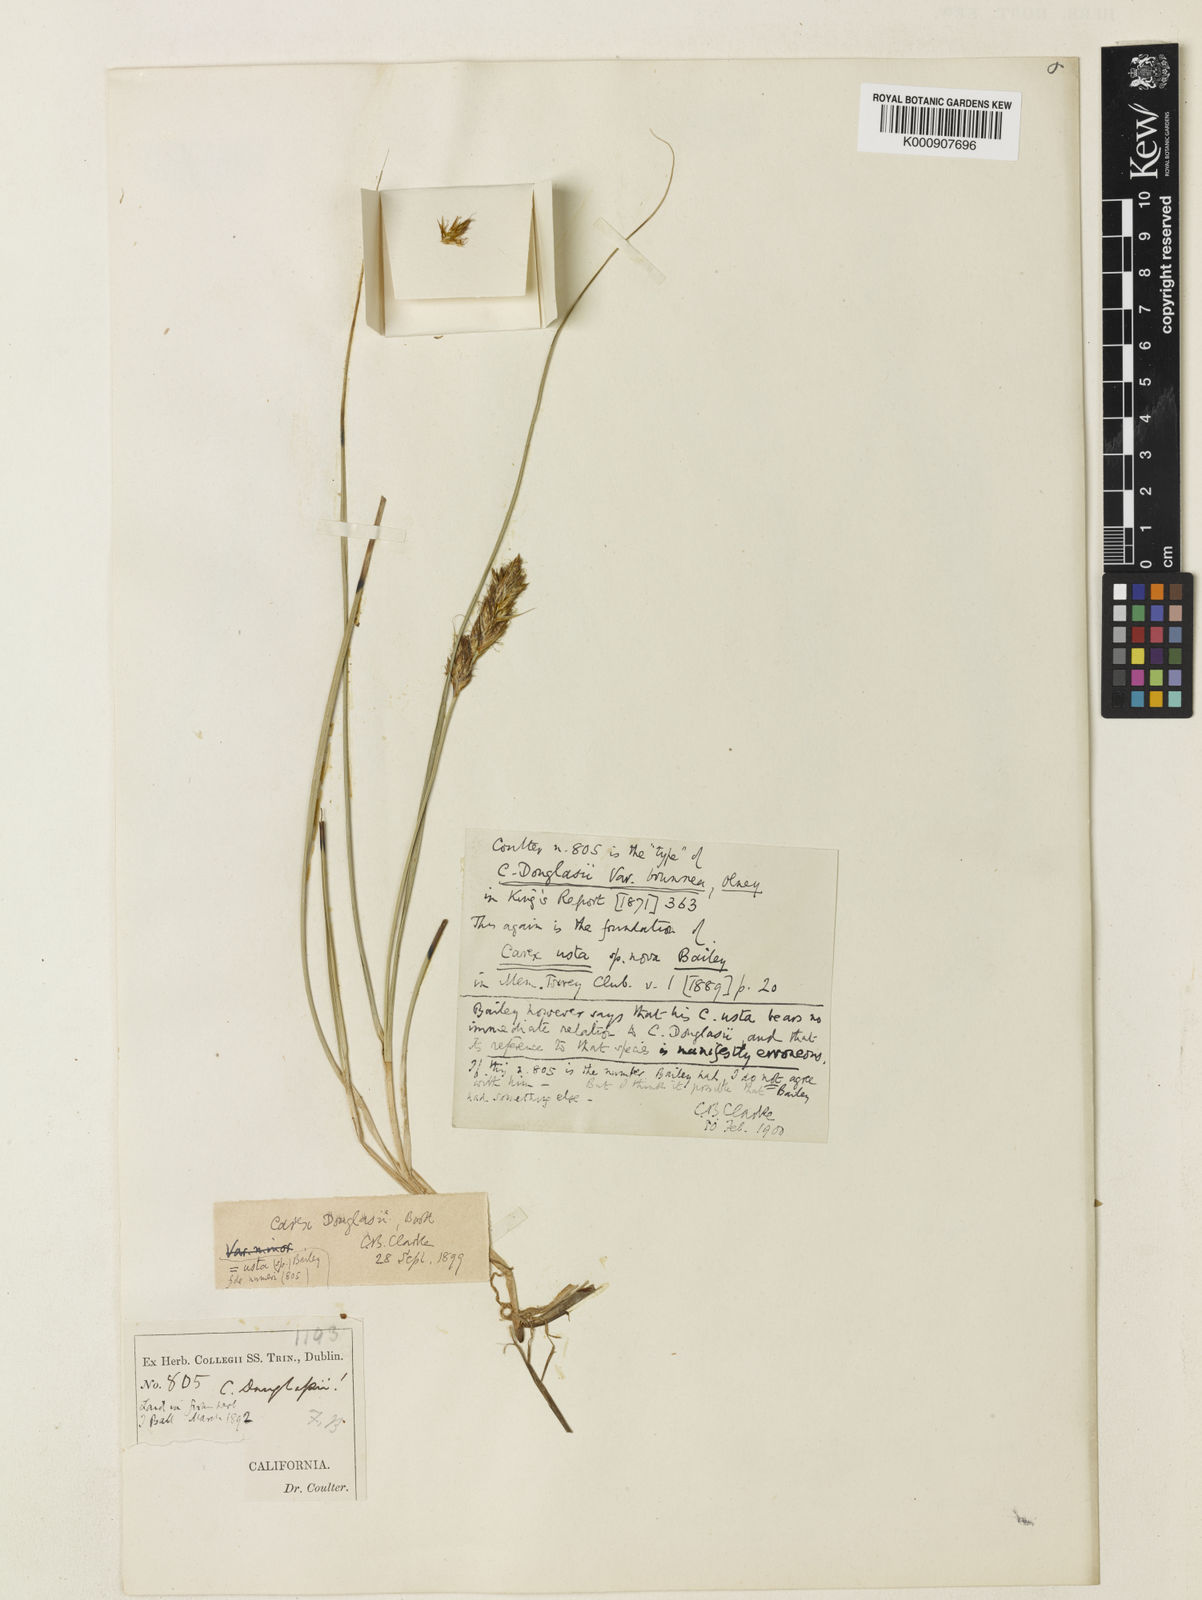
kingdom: Plantae
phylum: Tracheophyta
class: Liliopsida
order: Poales
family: Cyperaceae
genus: Carex
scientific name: Carex praegracilis
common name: Black creeper sedge
